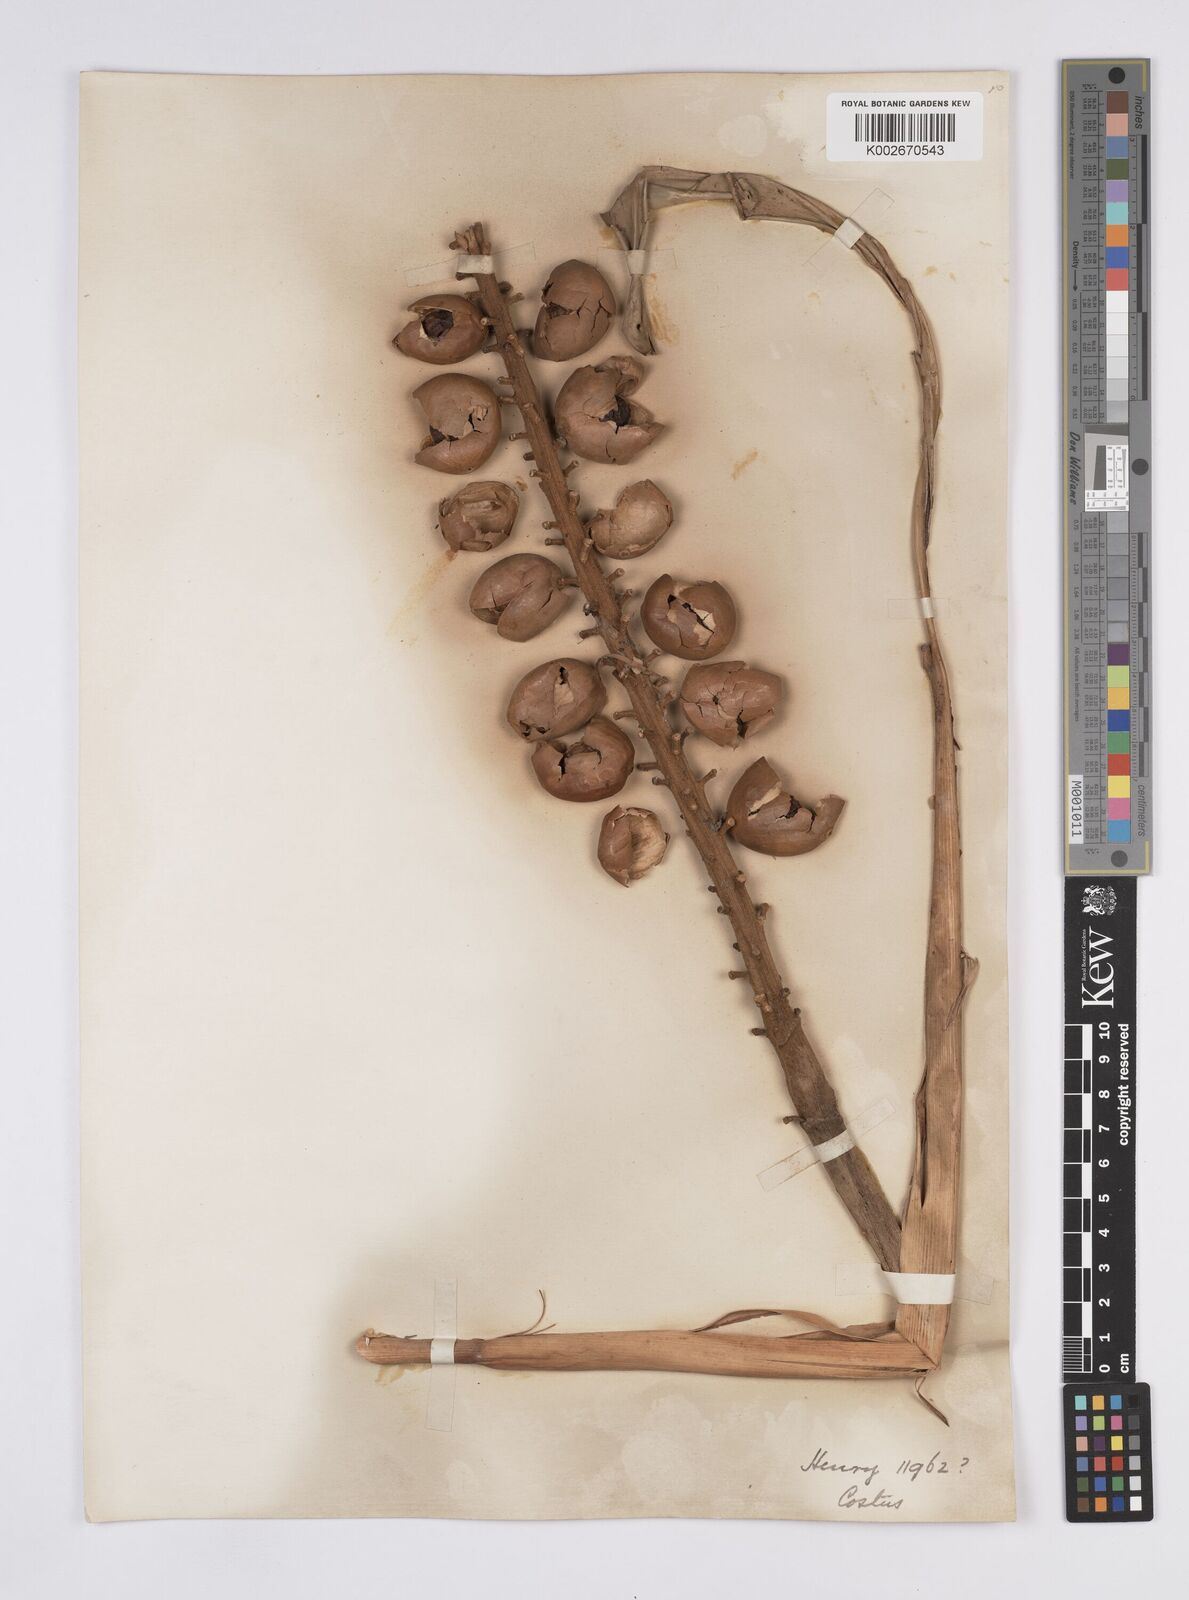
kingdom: Plantae
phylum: Tracheophyta
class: Liliopsida
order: Zingiberales
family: Zingiberaceae
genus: Alpinia
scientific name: Alpinia roxburghii
